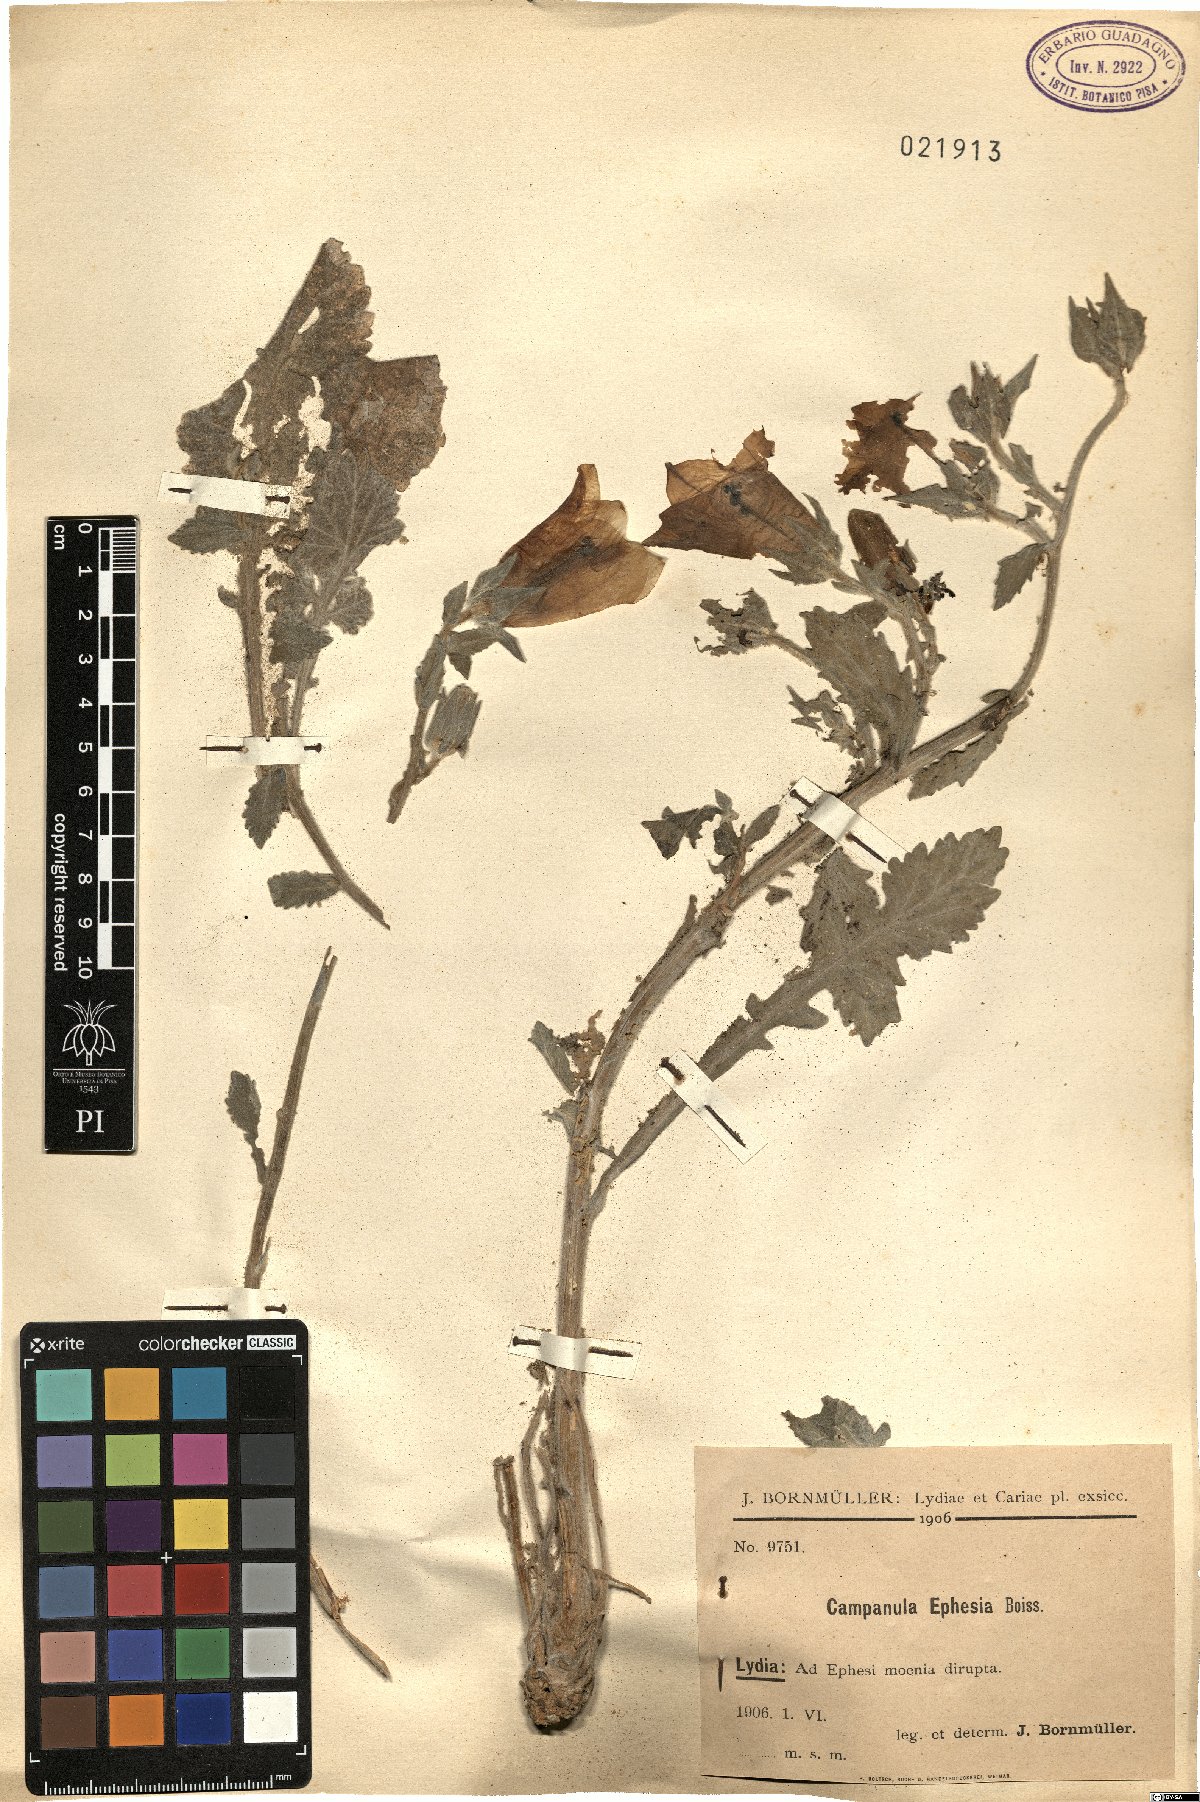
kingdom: Plantae
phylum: Tracheophyta
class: Magnoliopsida
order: Asterales
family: Campanulaceae
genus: Campanula
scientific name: Campanula tomentosa
